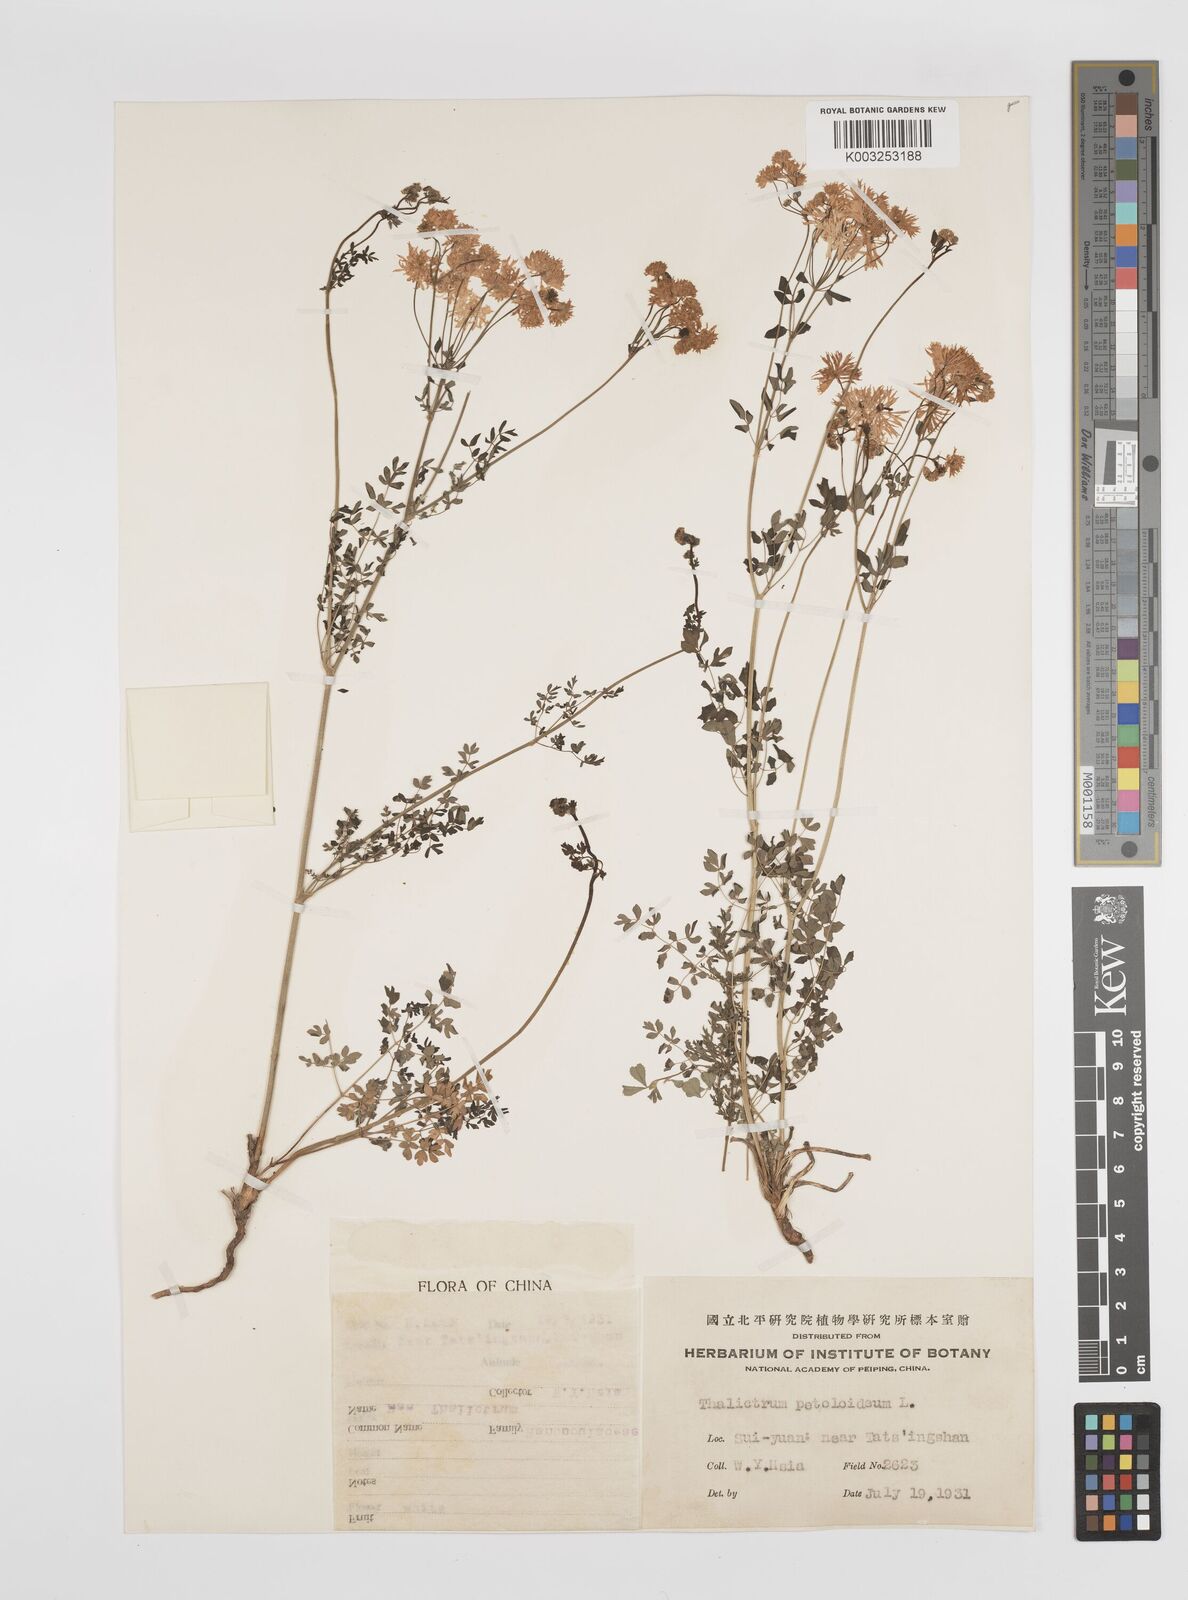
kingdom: Plantae
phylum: Tracheophyta
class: Magnoliopsida
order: Ranunculales
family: Ranunculaceae
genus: Thalictrum
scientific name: Thalictrum petaloideum
